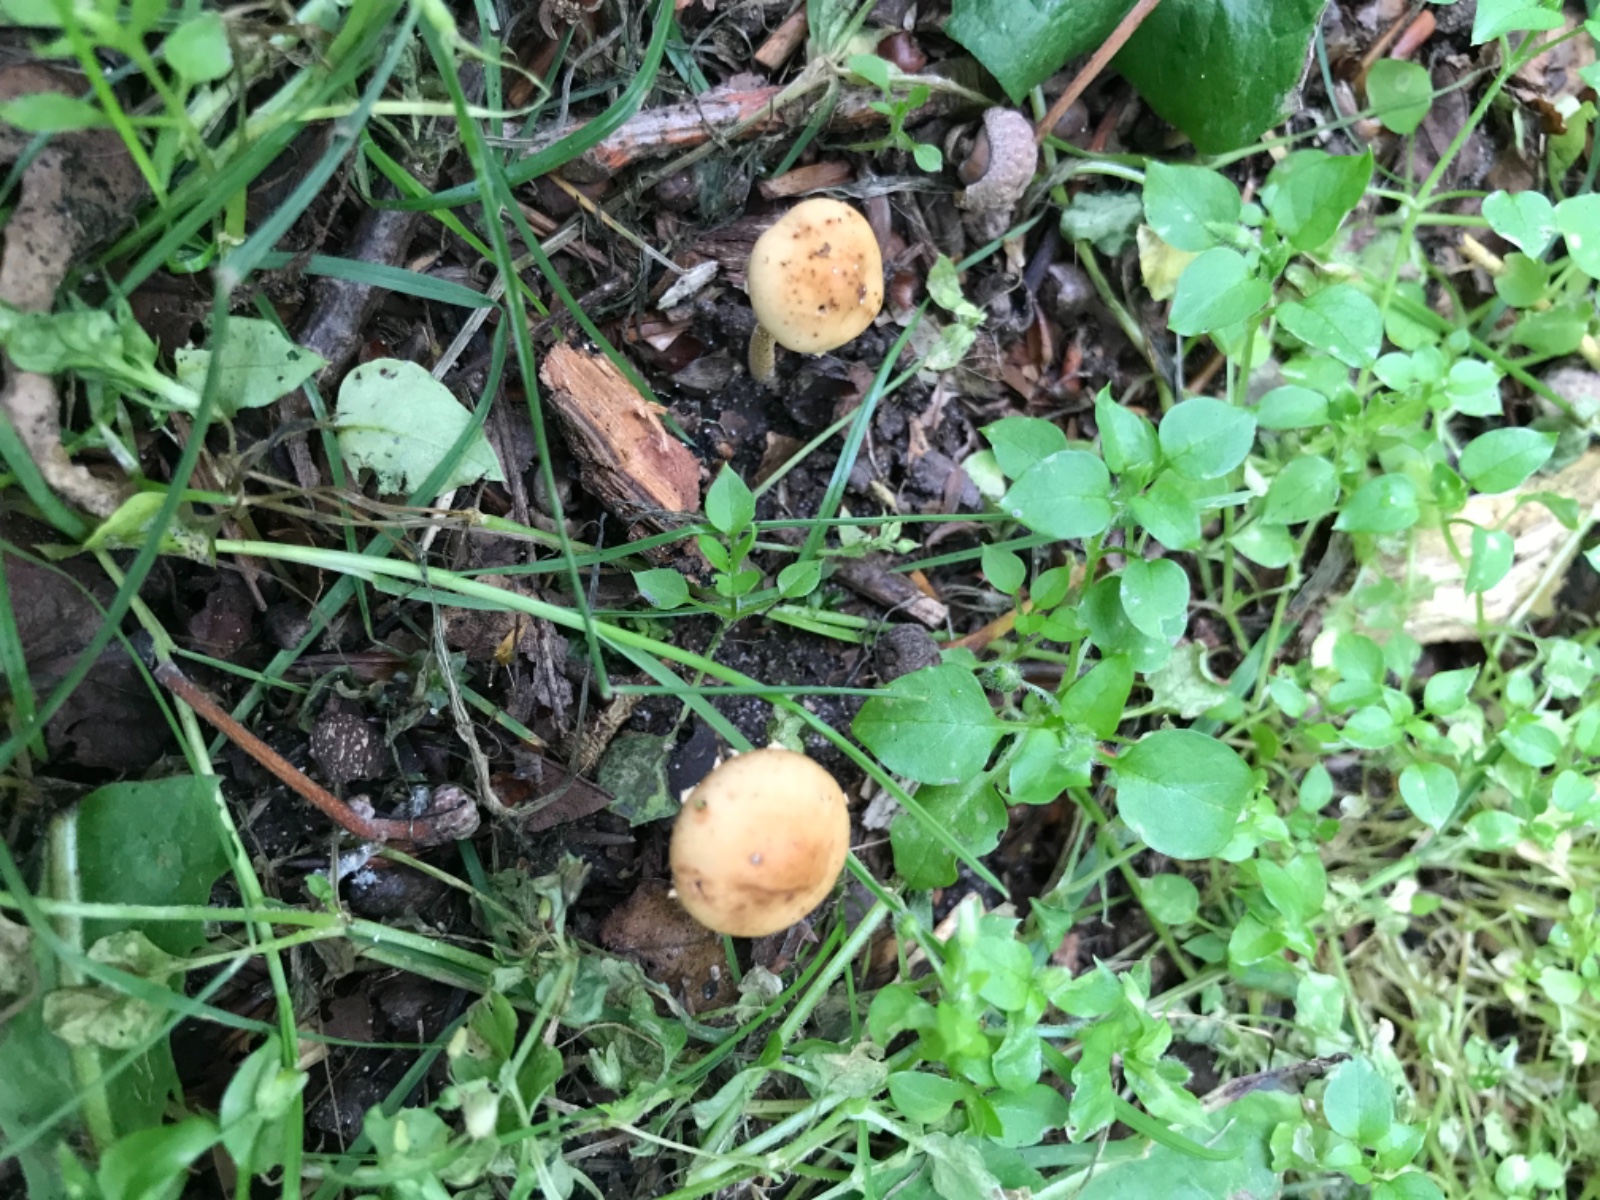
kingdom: Fungi
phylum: Basidiomycota
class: Agaricomycetes
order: Agaricales
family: Bolbitiaceae
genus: Pholiotina
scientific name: Pholiotina
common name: dansehat
